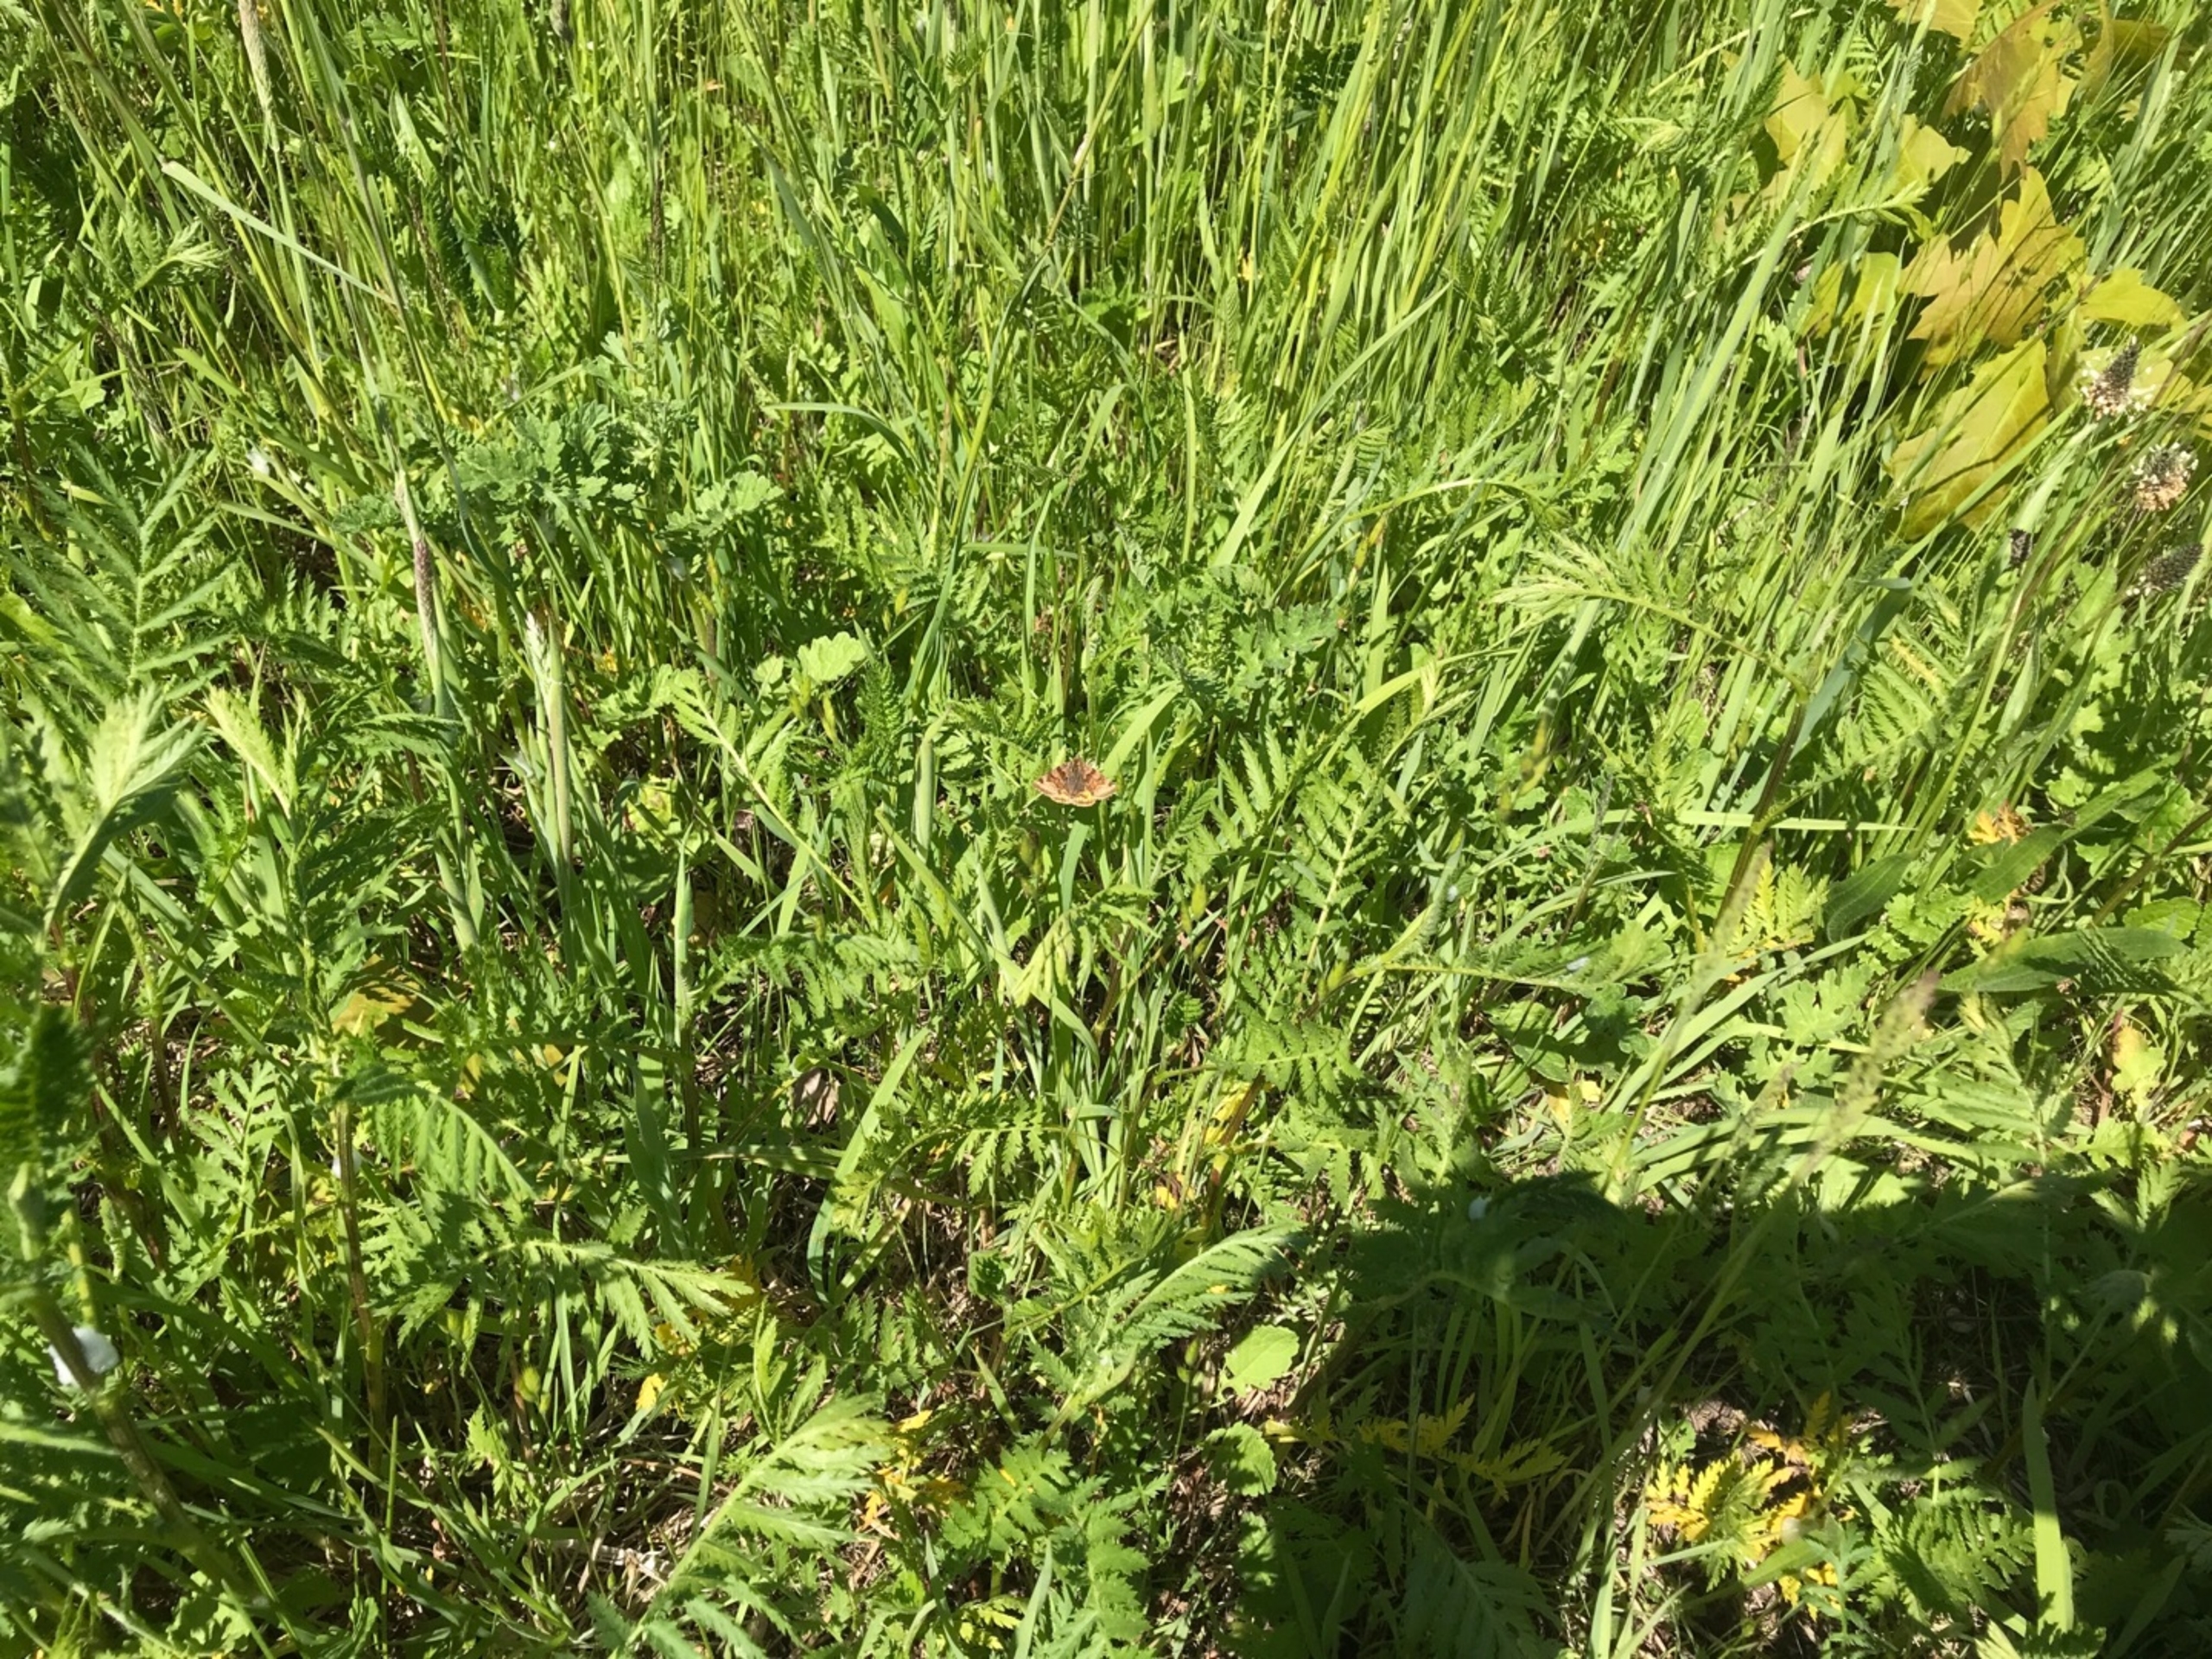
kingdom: Animalia
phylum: Arthropoda
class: Insecta
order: Lepidoptera
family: Erebidae
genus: Euclidia
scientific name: Euclidia glyphica
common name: Brun kløverugle
